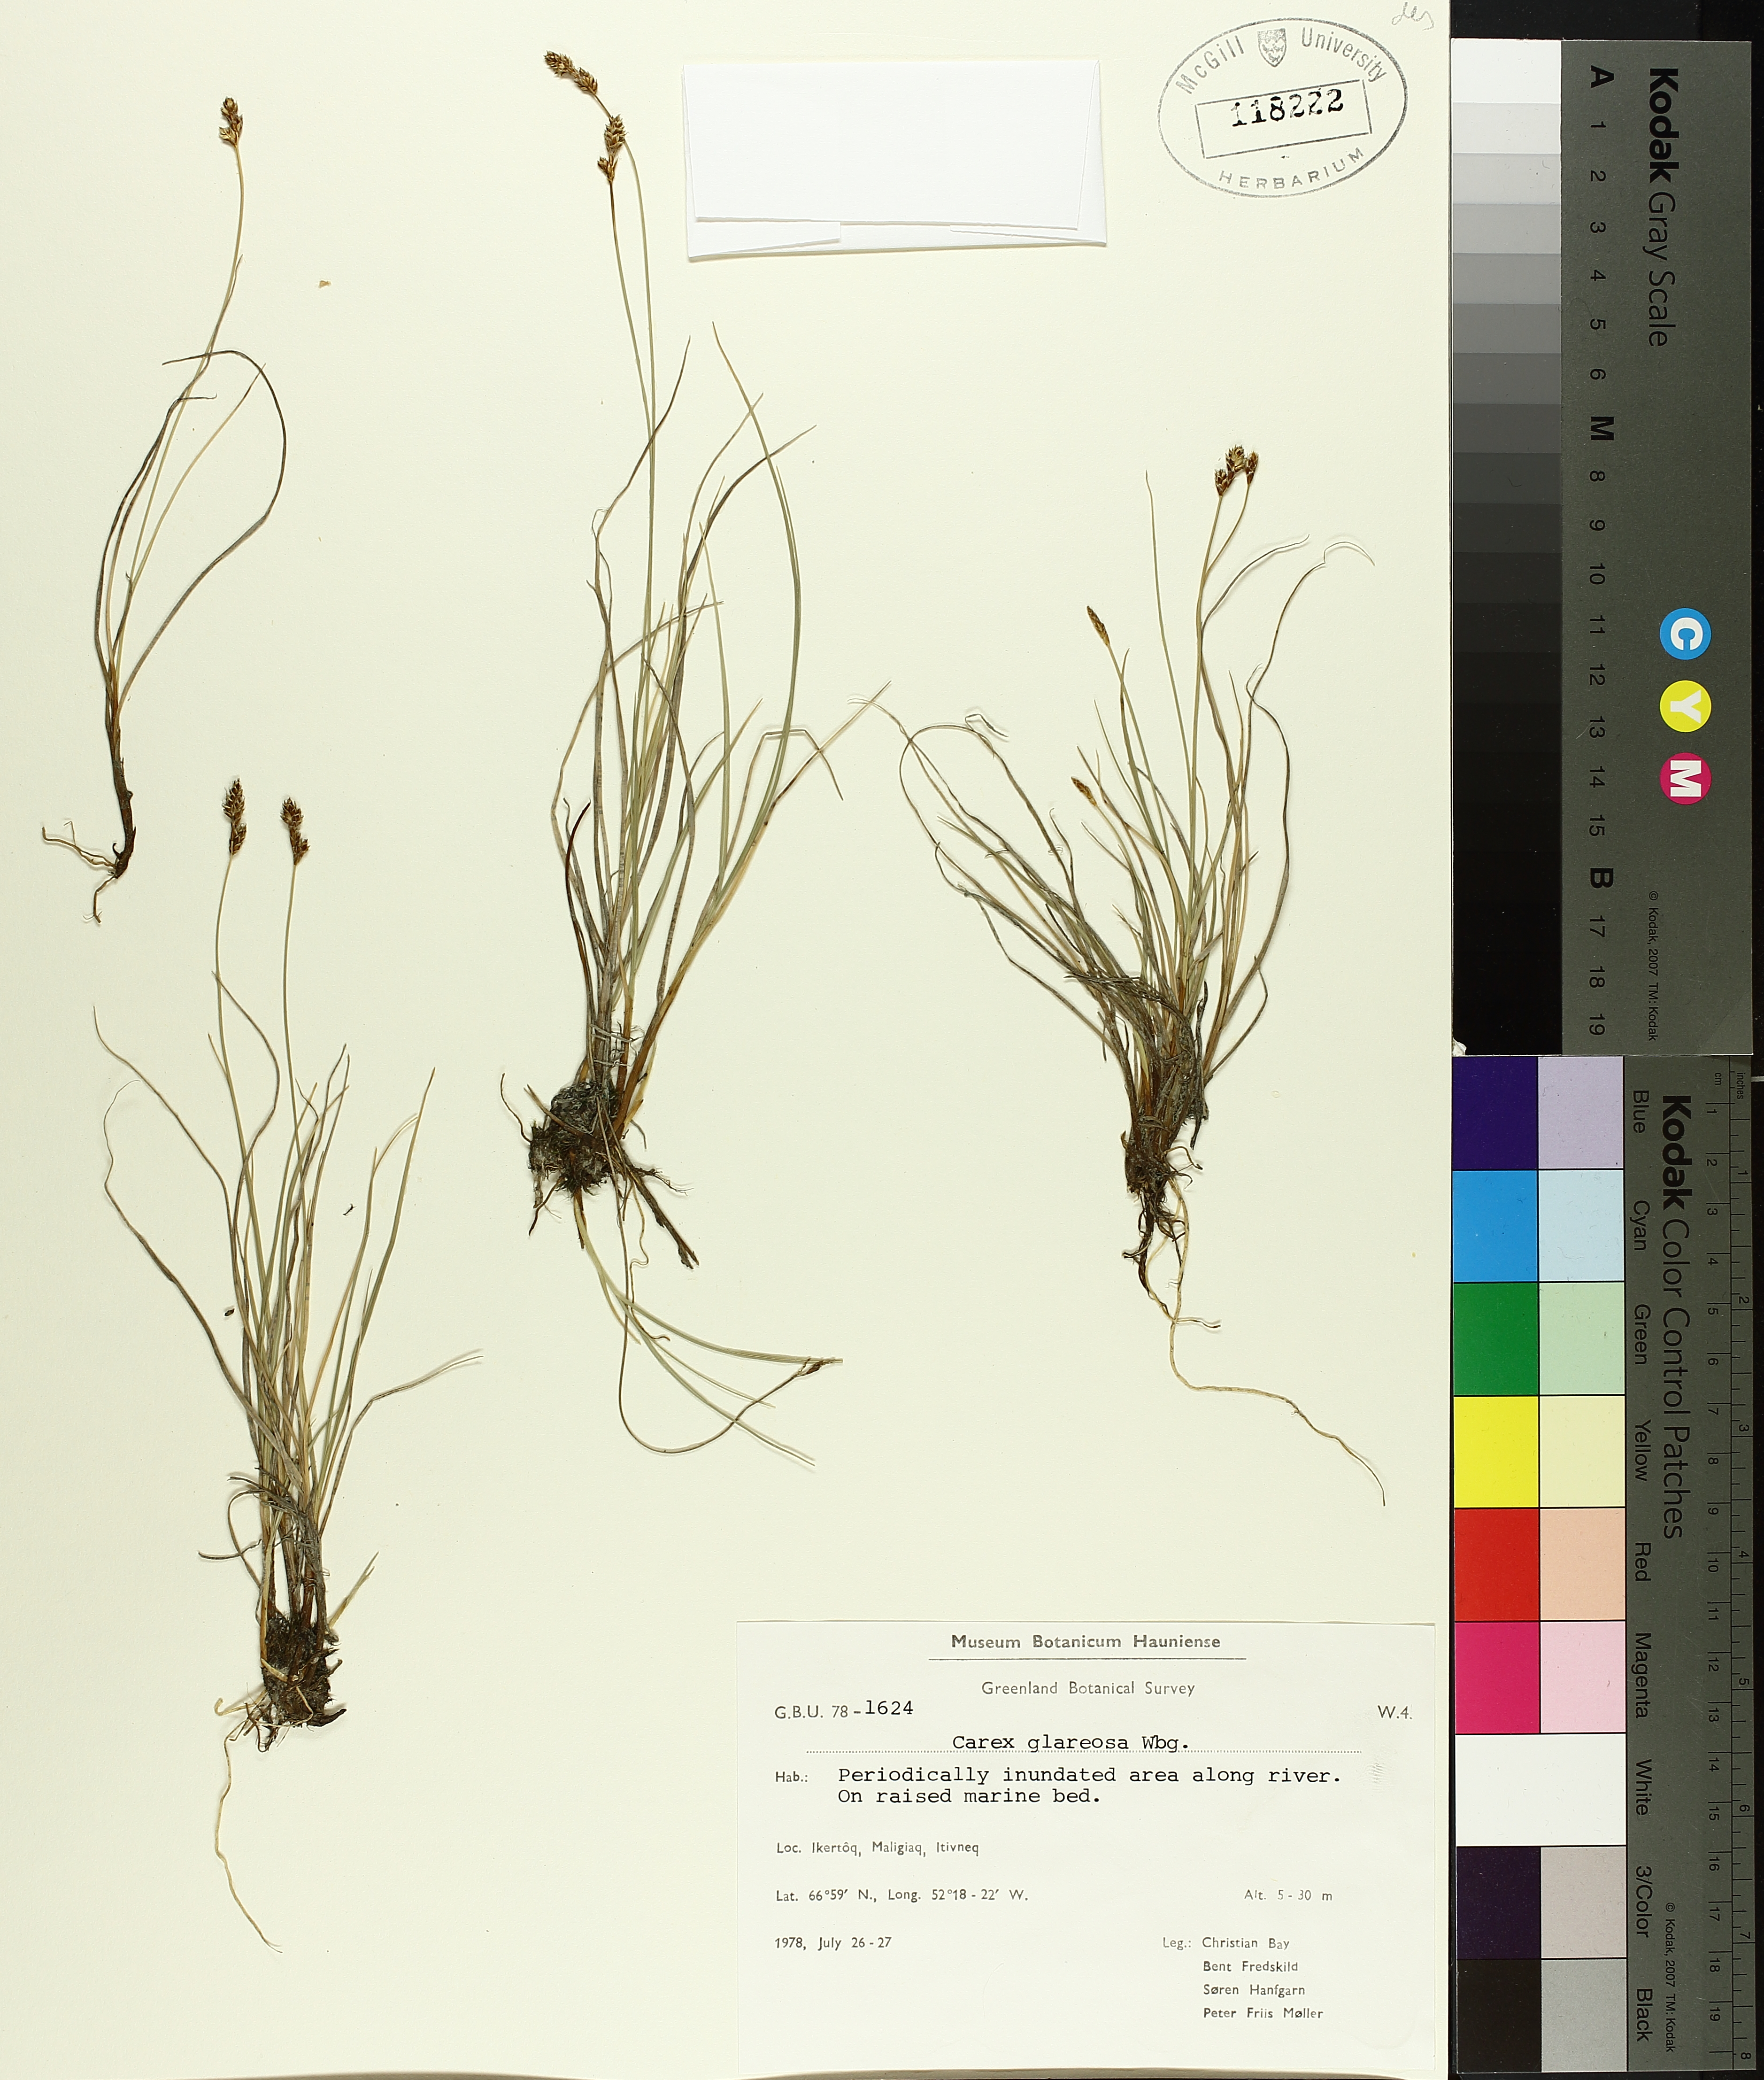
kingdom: Plantae
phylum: Tracheophyta
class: Liliopsida
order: Poales
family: Cyperaceae
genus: Carex
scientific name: Carex glareosa
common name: Clustered sedge
